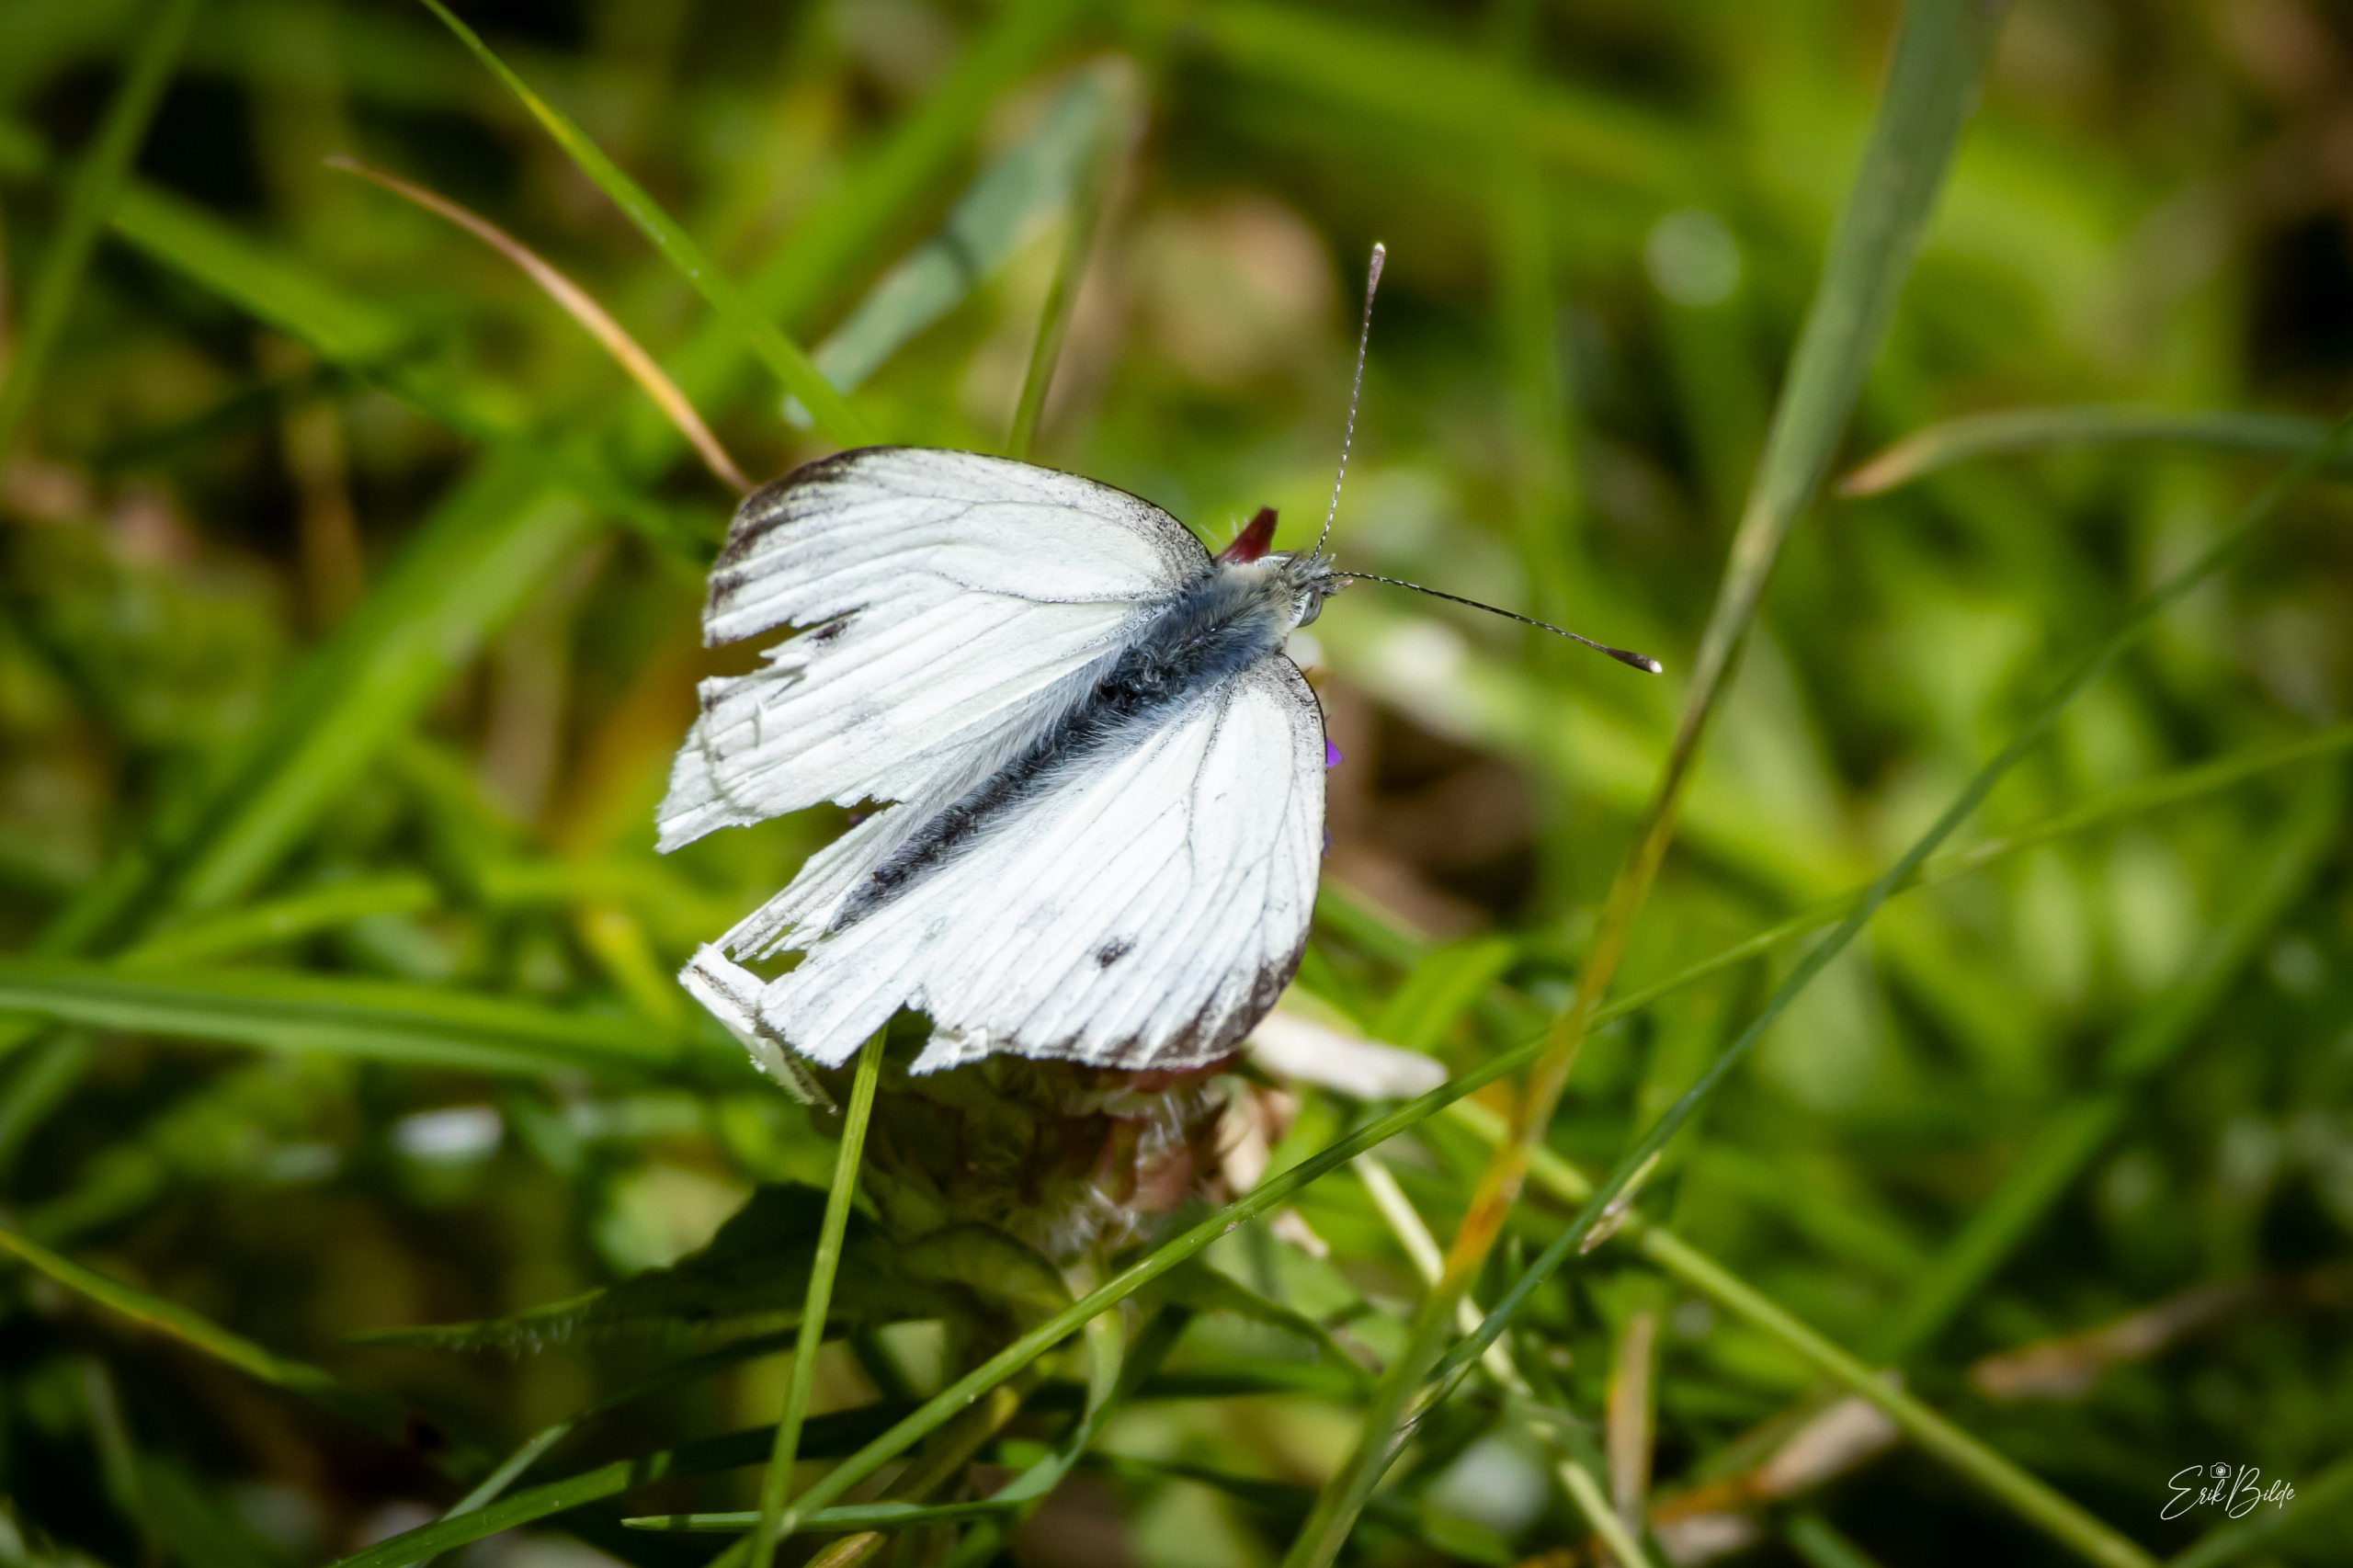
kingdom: Animalia
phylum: Arthropoda
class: Insecta
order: Lepidoptera
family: Pieridae
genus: Pieris
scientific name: Pieris napi
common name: Grønåret kålsommerfugl
